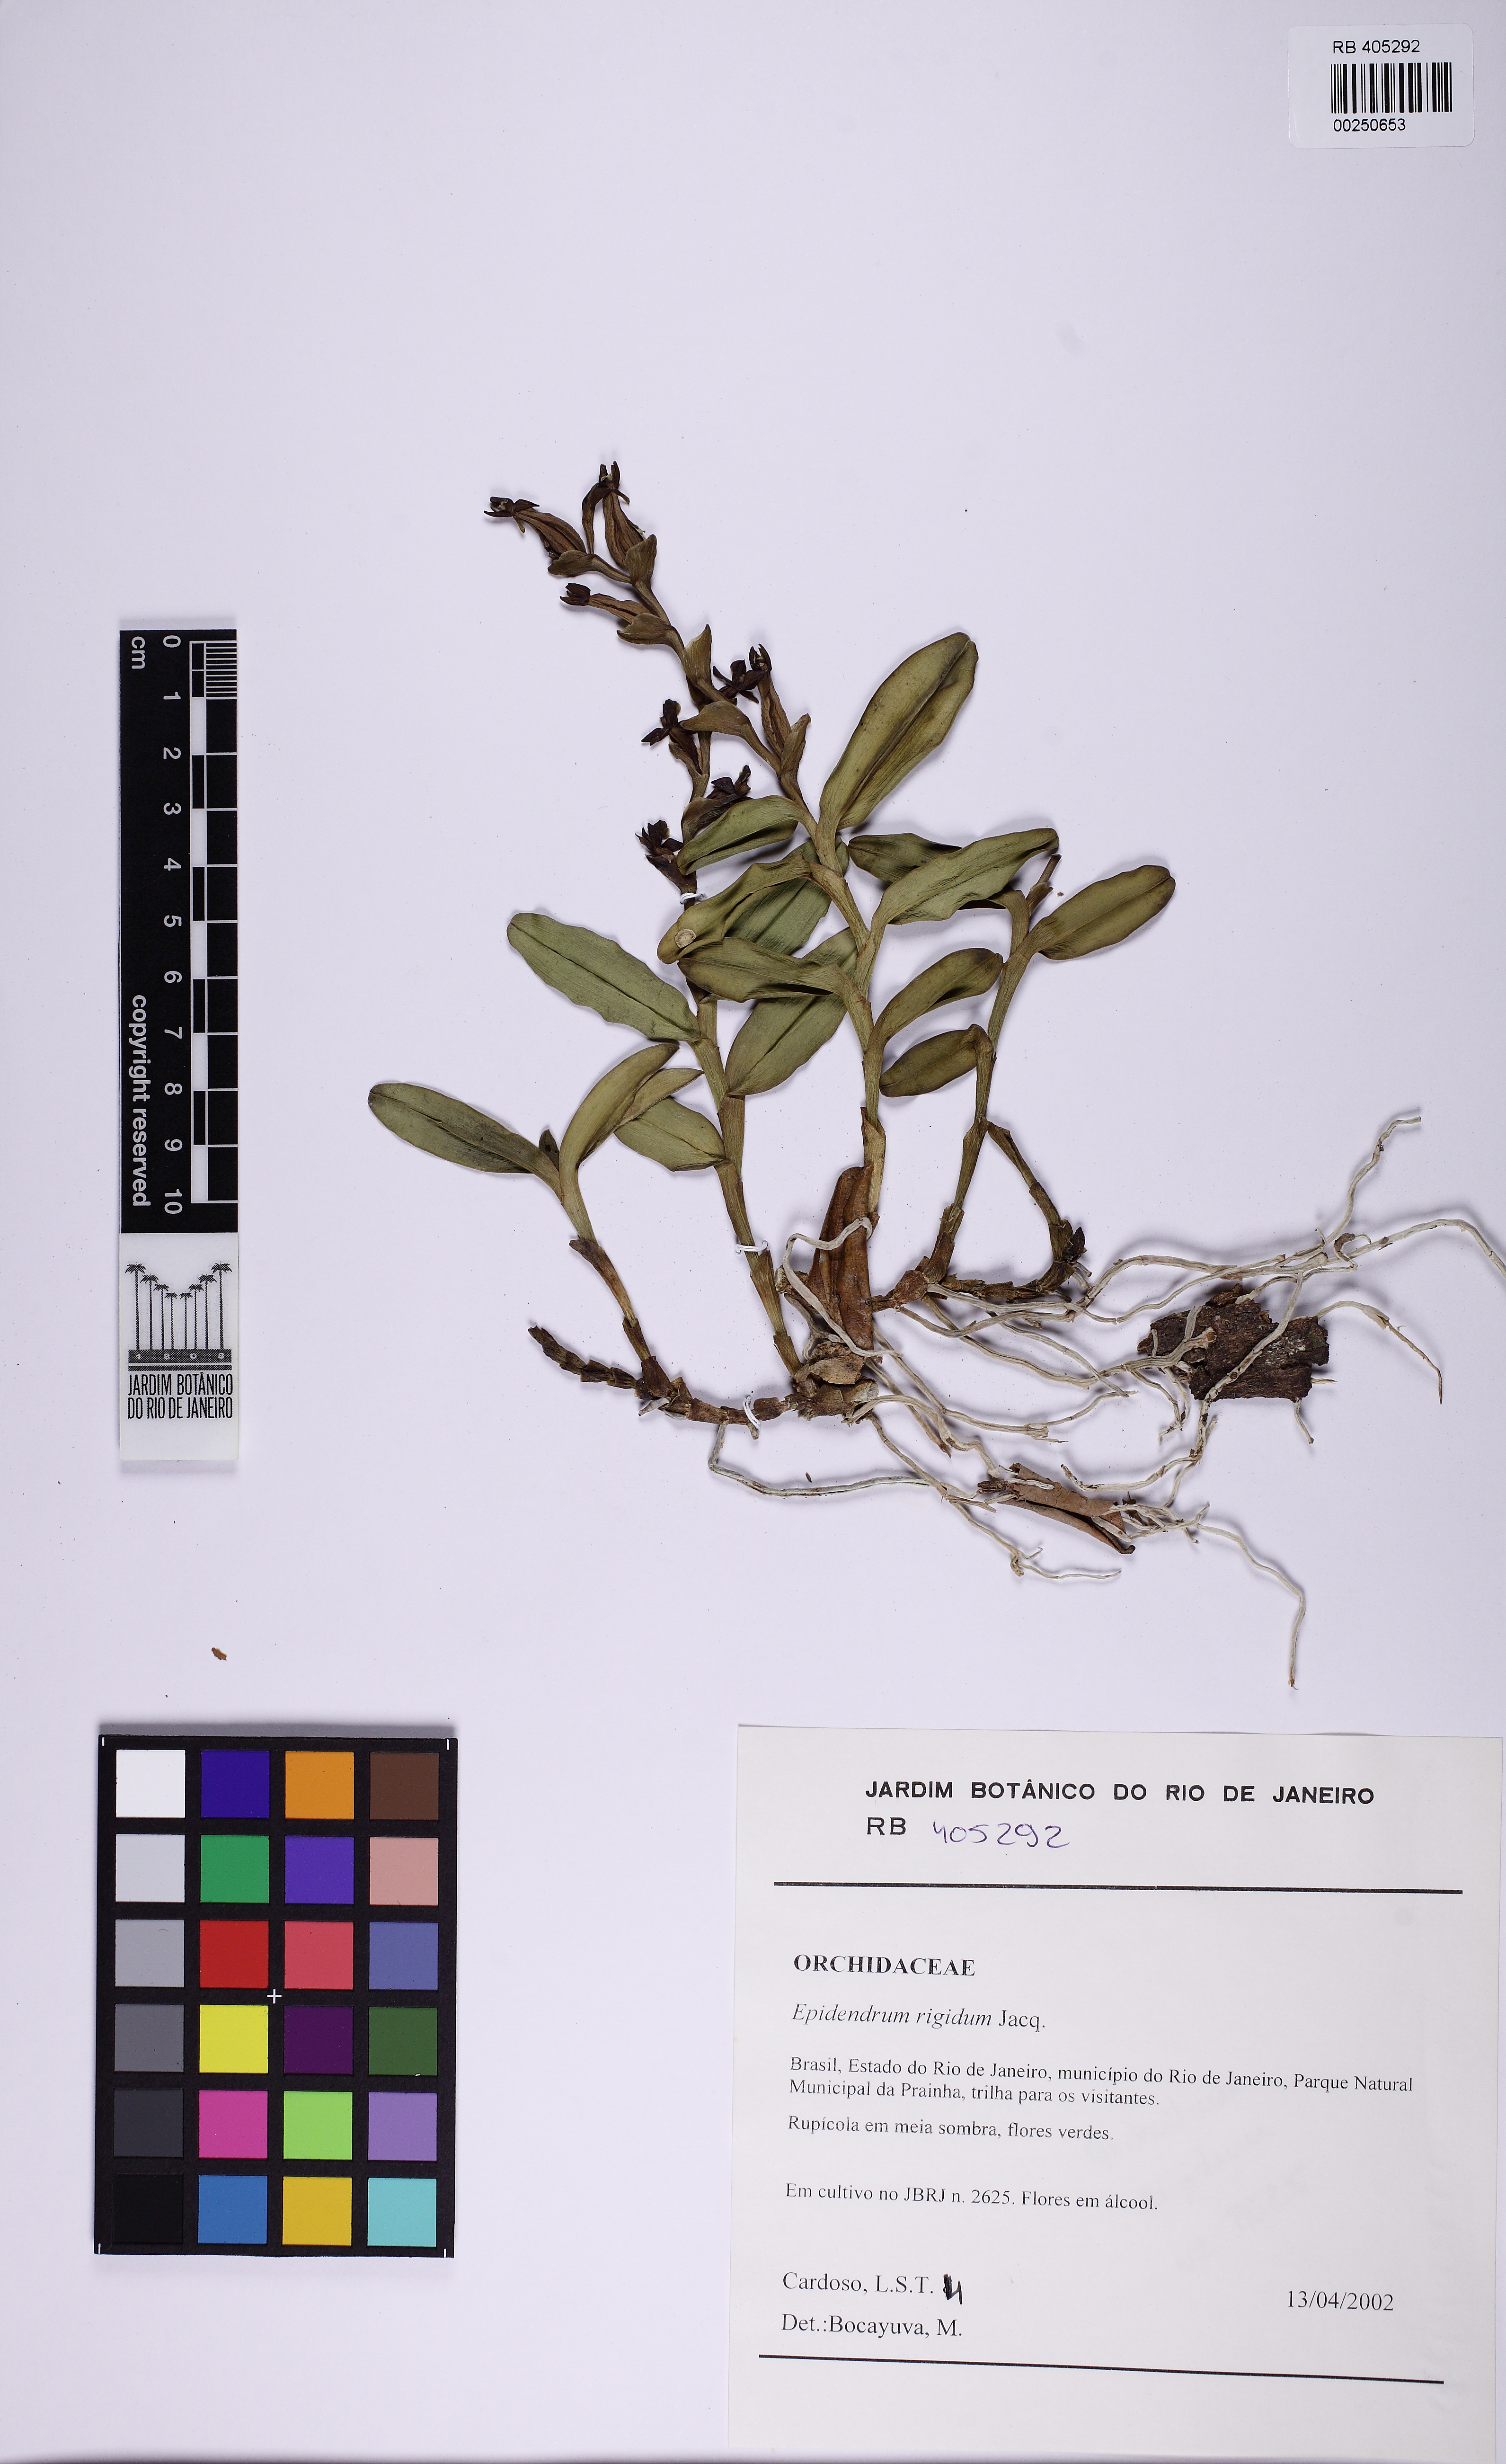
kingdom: Plantae
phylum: Tracheophyta
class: Liliopsida
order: Asparagales
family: Orchidaceae
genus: Epidendrum
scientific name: Epidendrum rigidum
